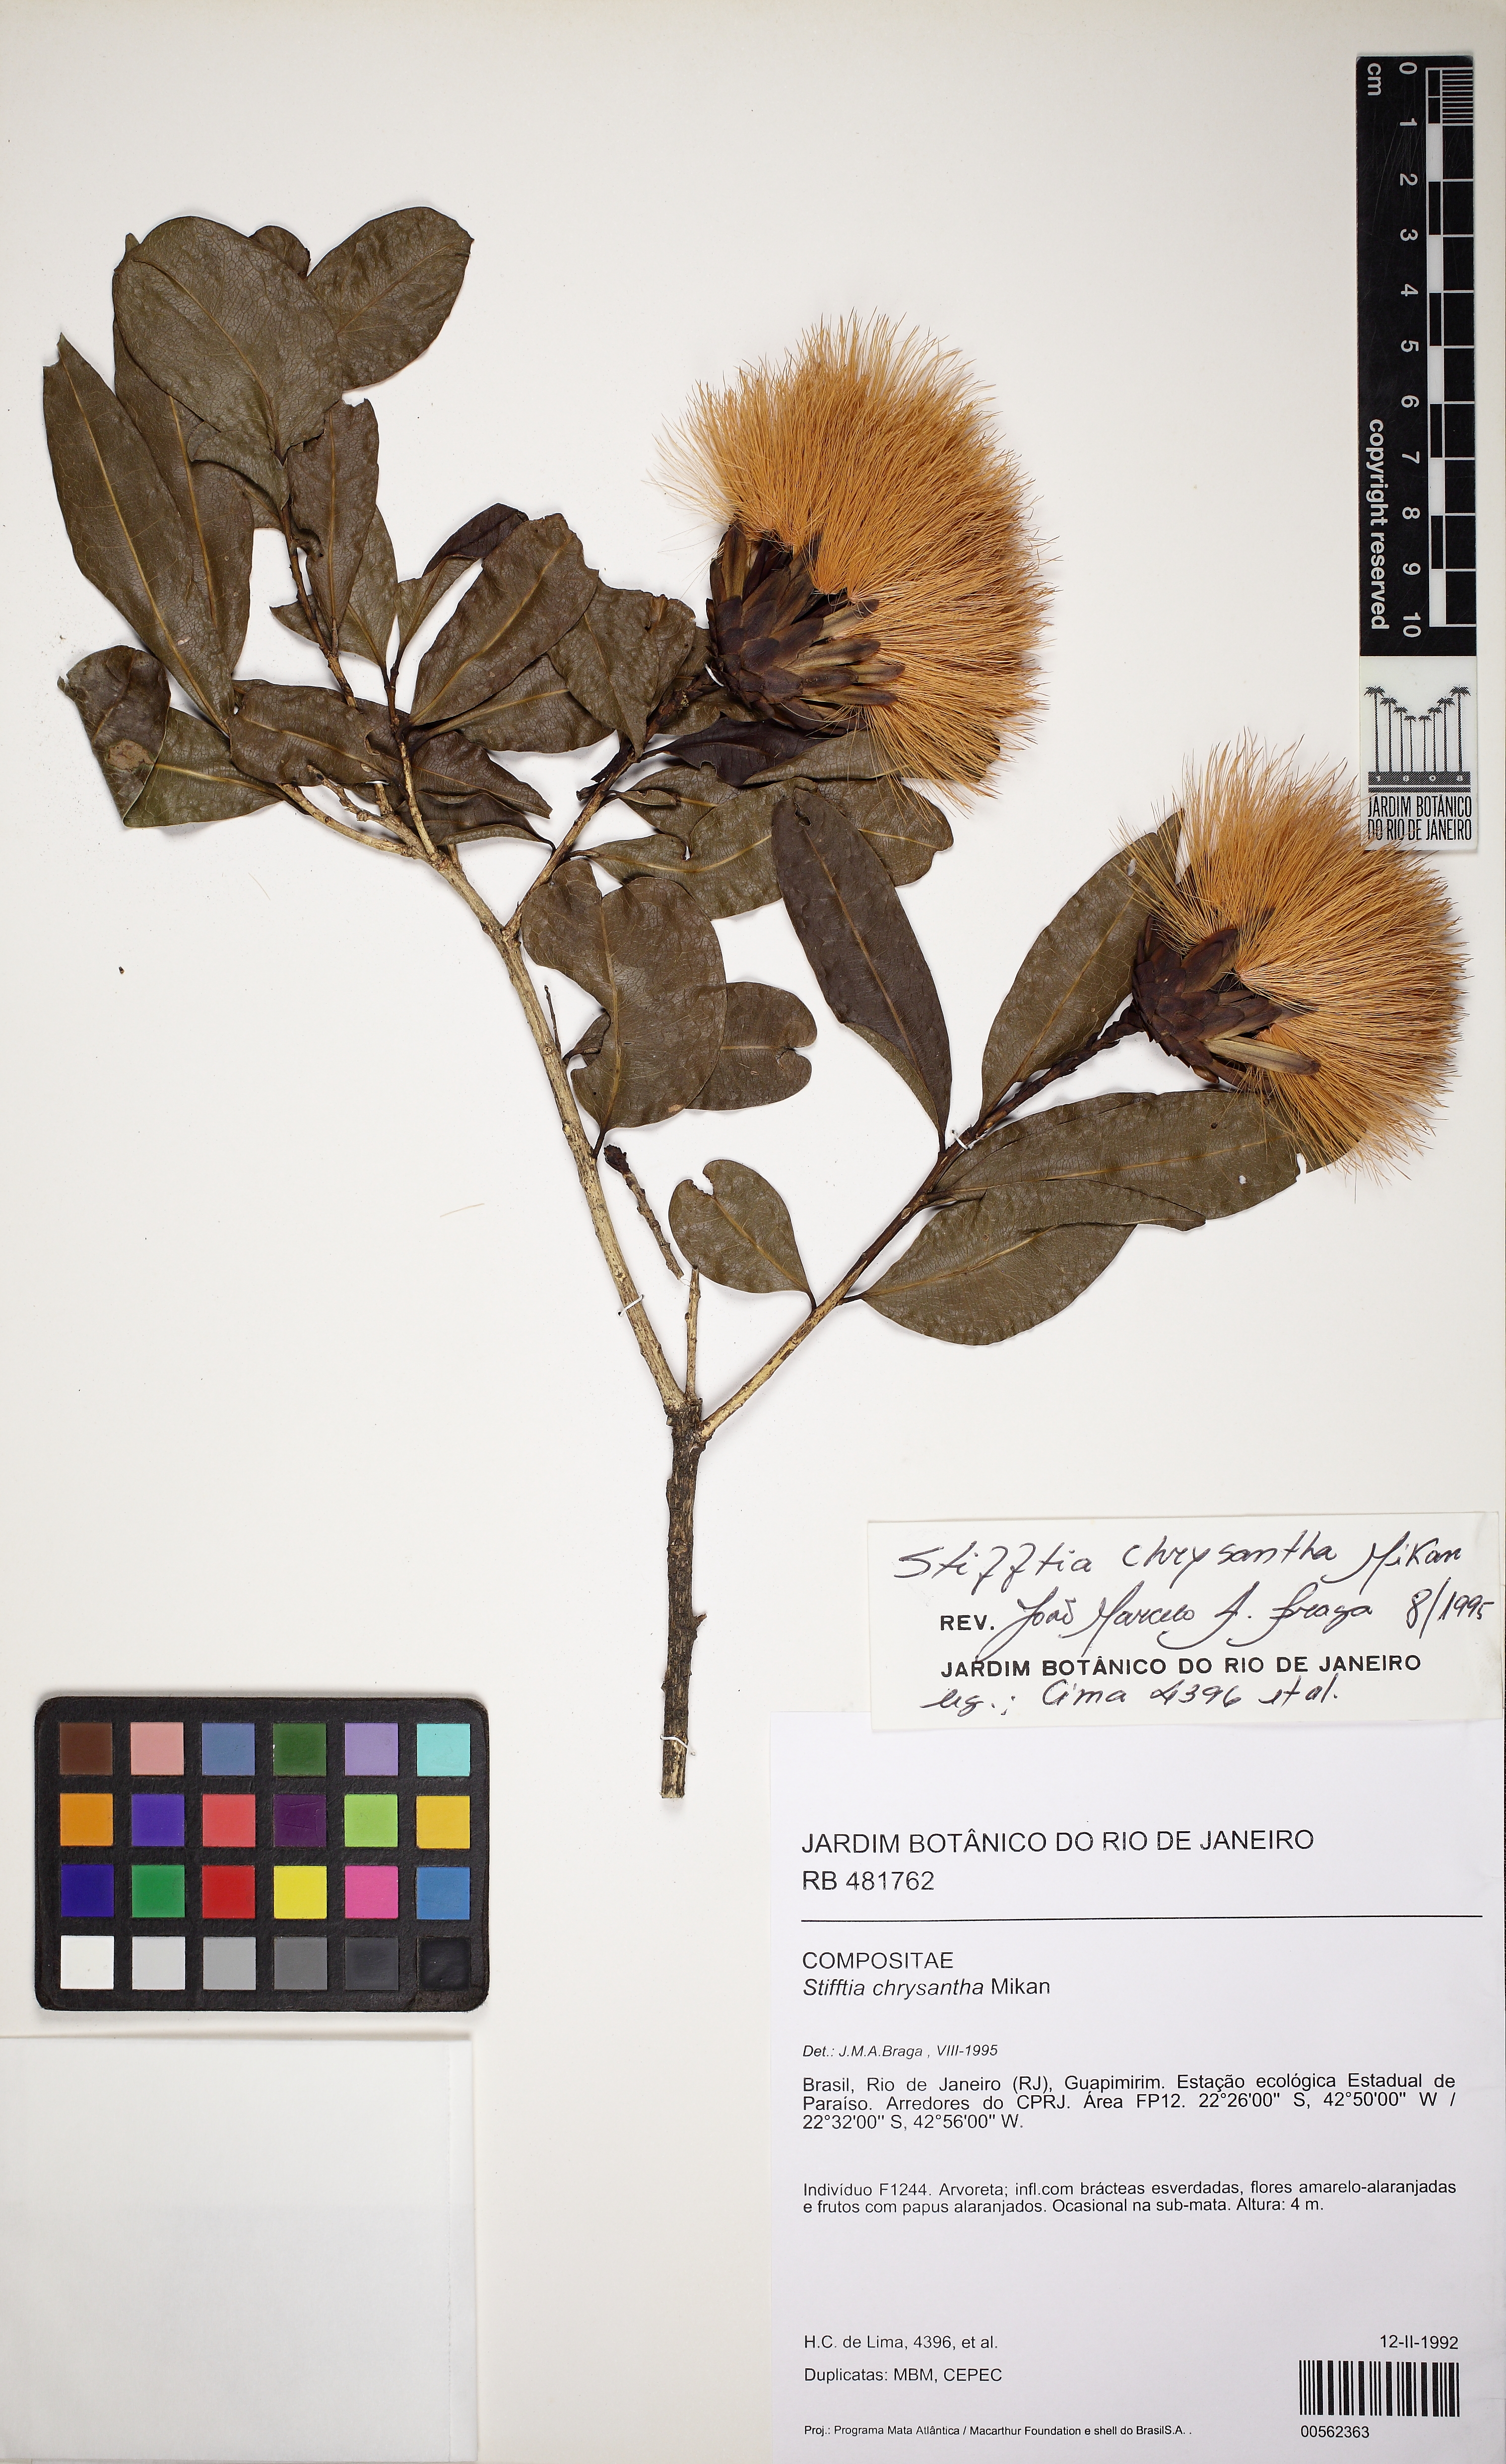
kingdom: Plantae
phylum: Tracheophyta
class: Magnoliopsida
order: Asterales
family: Asteraceae
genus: Stifftia
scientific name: Stifftia chrysantha
